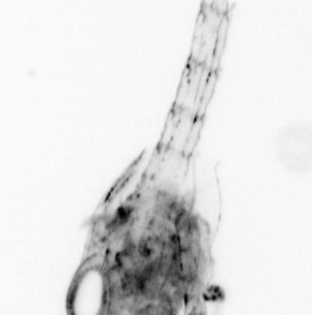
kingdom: Animalia
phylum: Arthropoda
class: Malacostraca
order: Decapoda
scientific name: Decapoda
